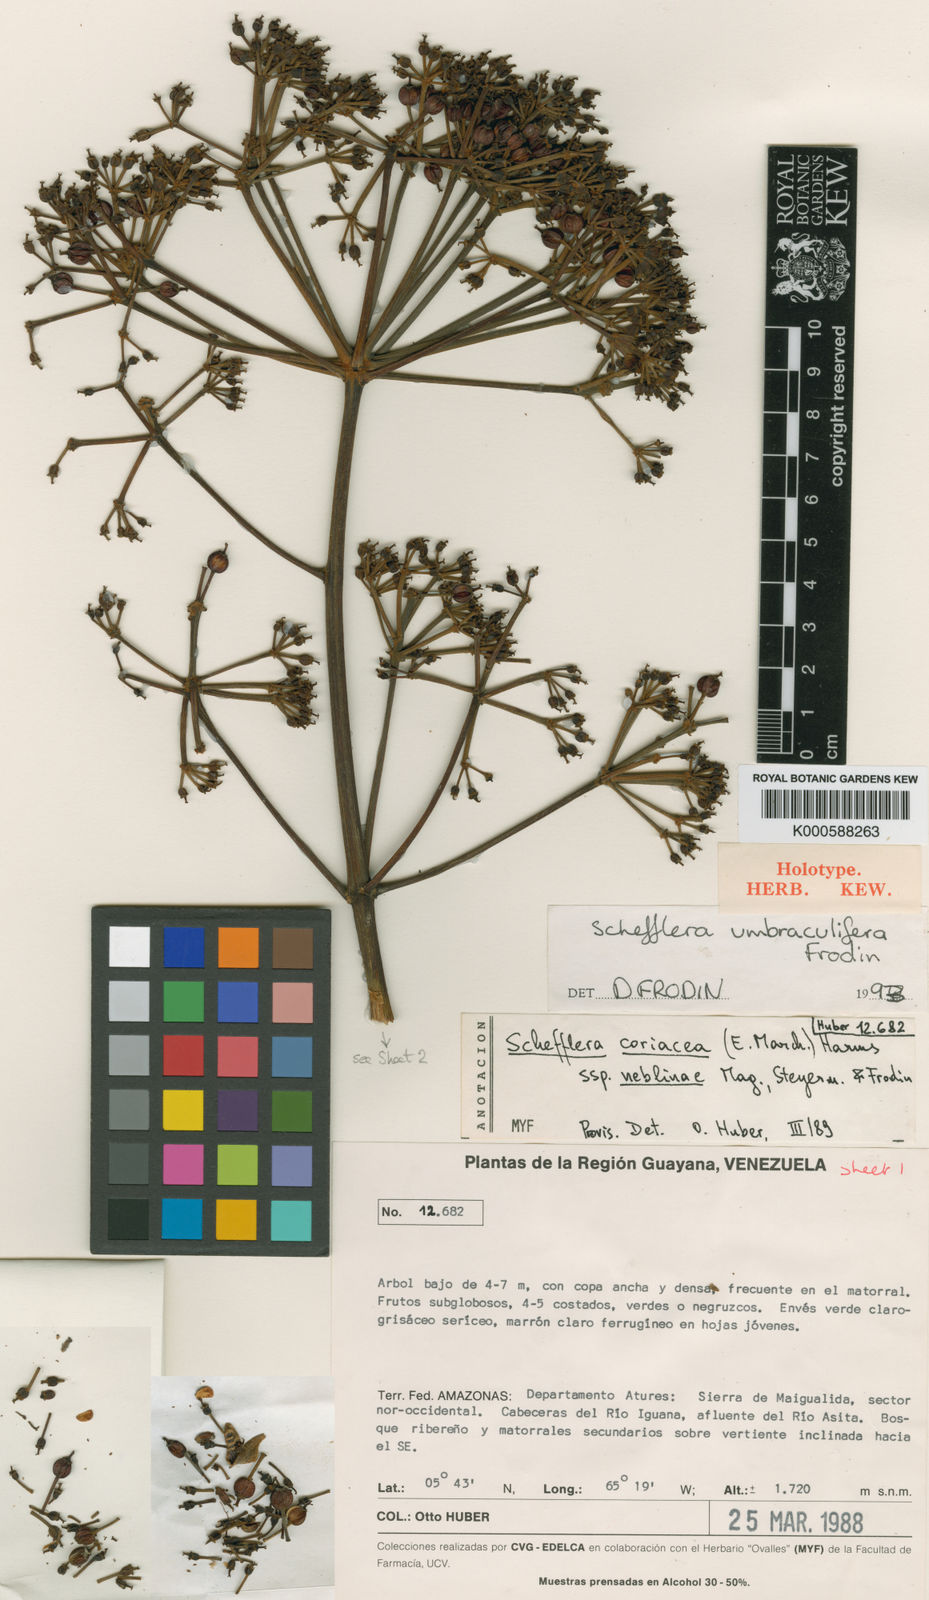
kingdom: Plantae
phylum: Tracheophyta
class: Magnoliopsida
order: Apiales
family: Araliaceae
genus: Crepinella
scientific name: Crepinella
